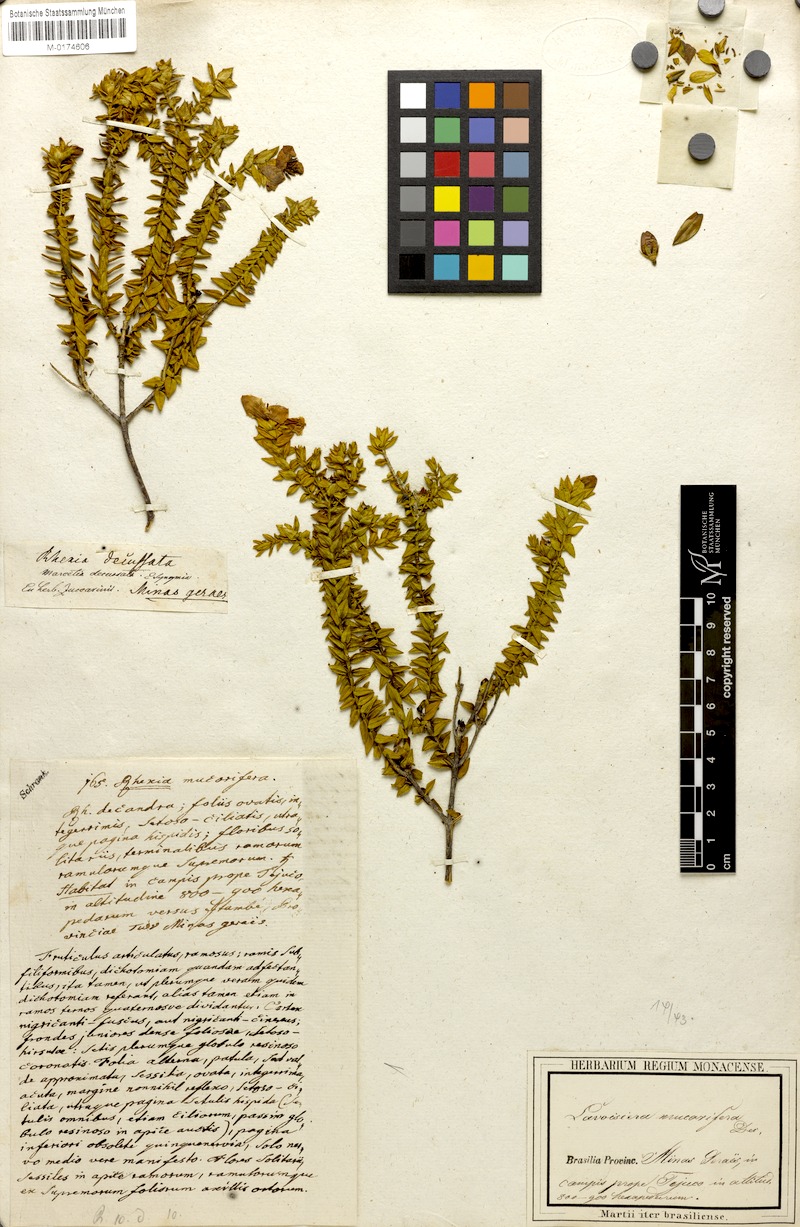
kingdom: Plantae
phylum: Tracheophyta
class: Magnoliopsida
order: Myrtales
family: Melastomataceae
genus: Microlicia
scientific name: Microlicia mucorifera
